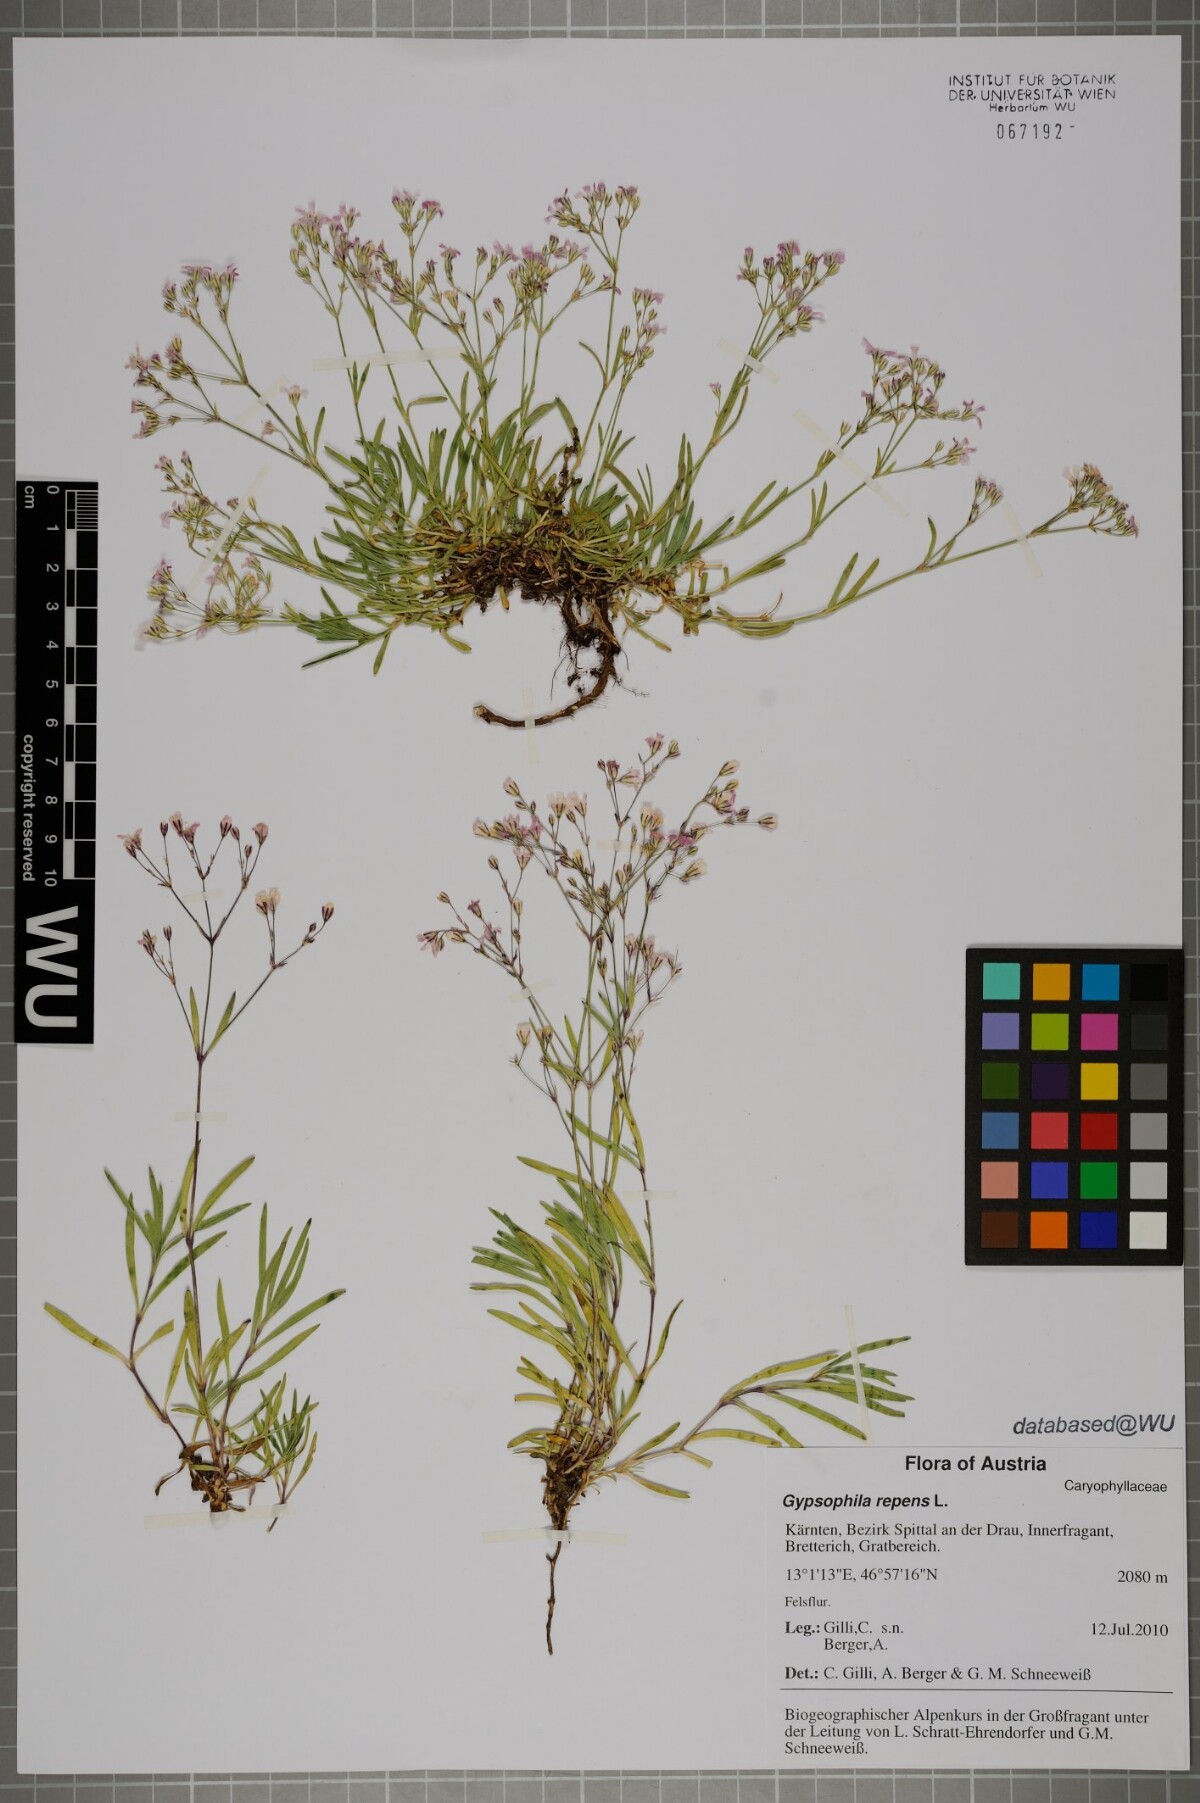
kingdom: Plantae
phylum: Tracheophyta
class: Magnoliopsida
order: Caryophyllales
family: Caryophyllaceae
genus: Gypsophila
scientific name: Gypsophila repens
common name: Creeping baby's-breath
